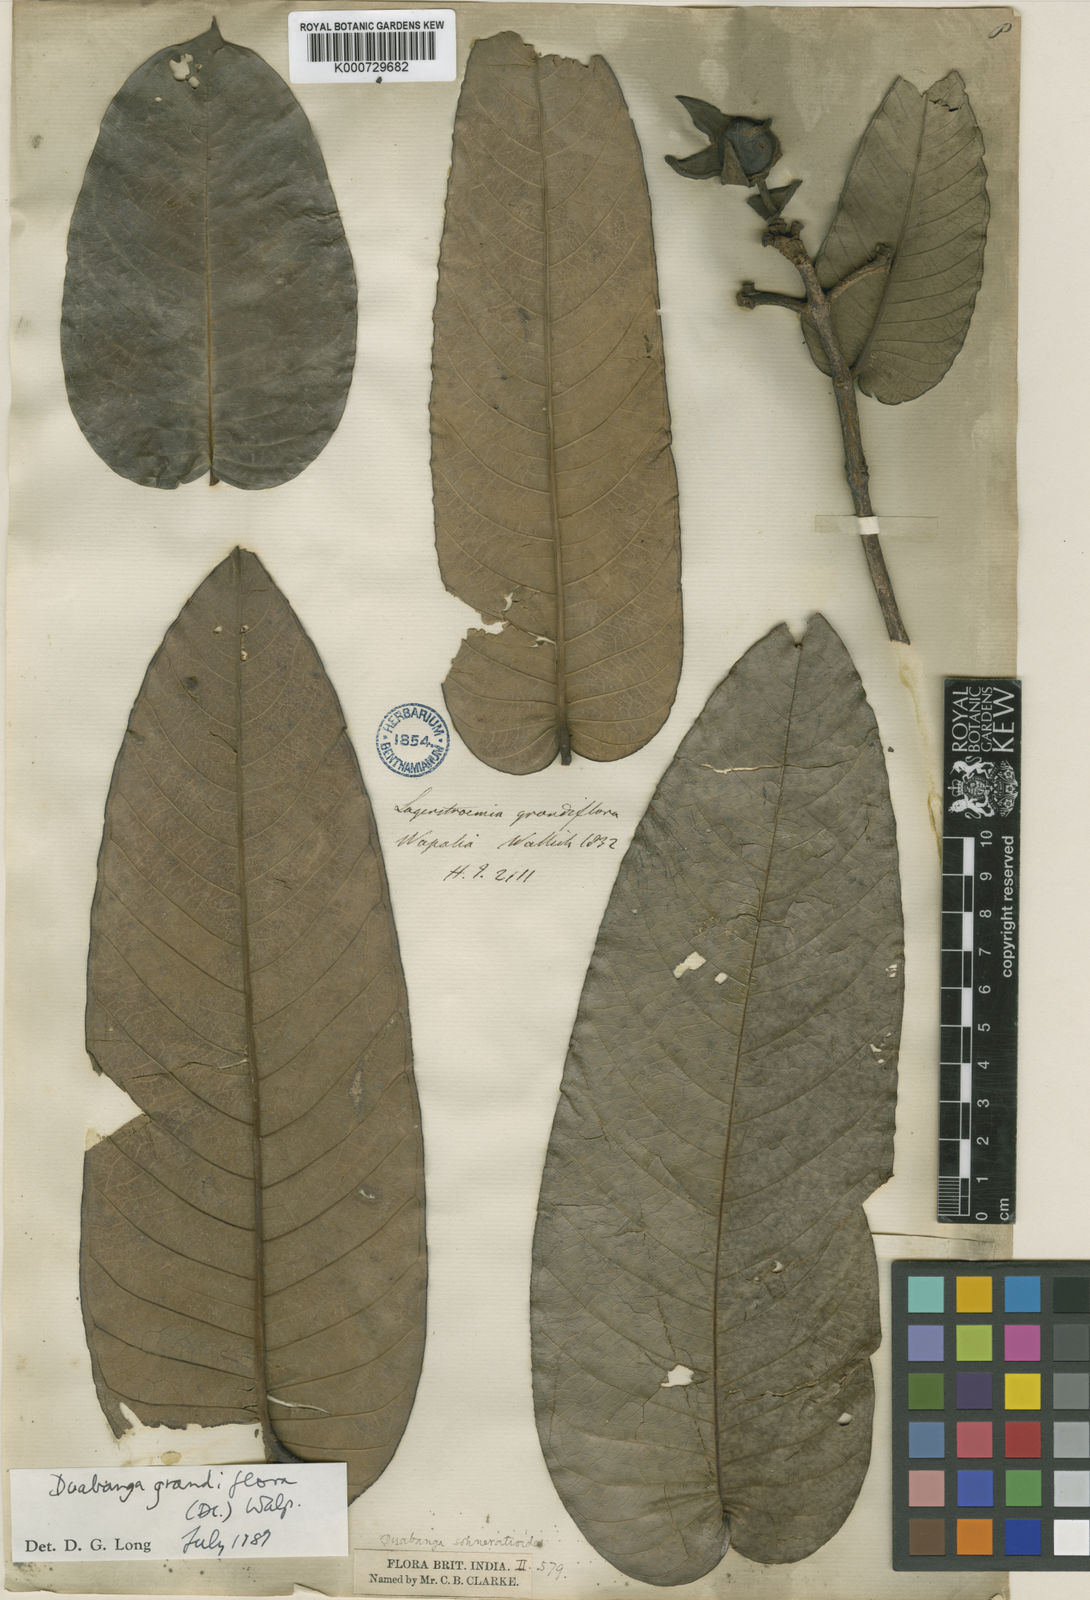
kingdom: Plantae
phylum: Tracheophyta
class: Magnoliopsida
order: Myrtales
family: Lythraceae
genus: Duabanga
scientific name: Duabanga grandiflora
